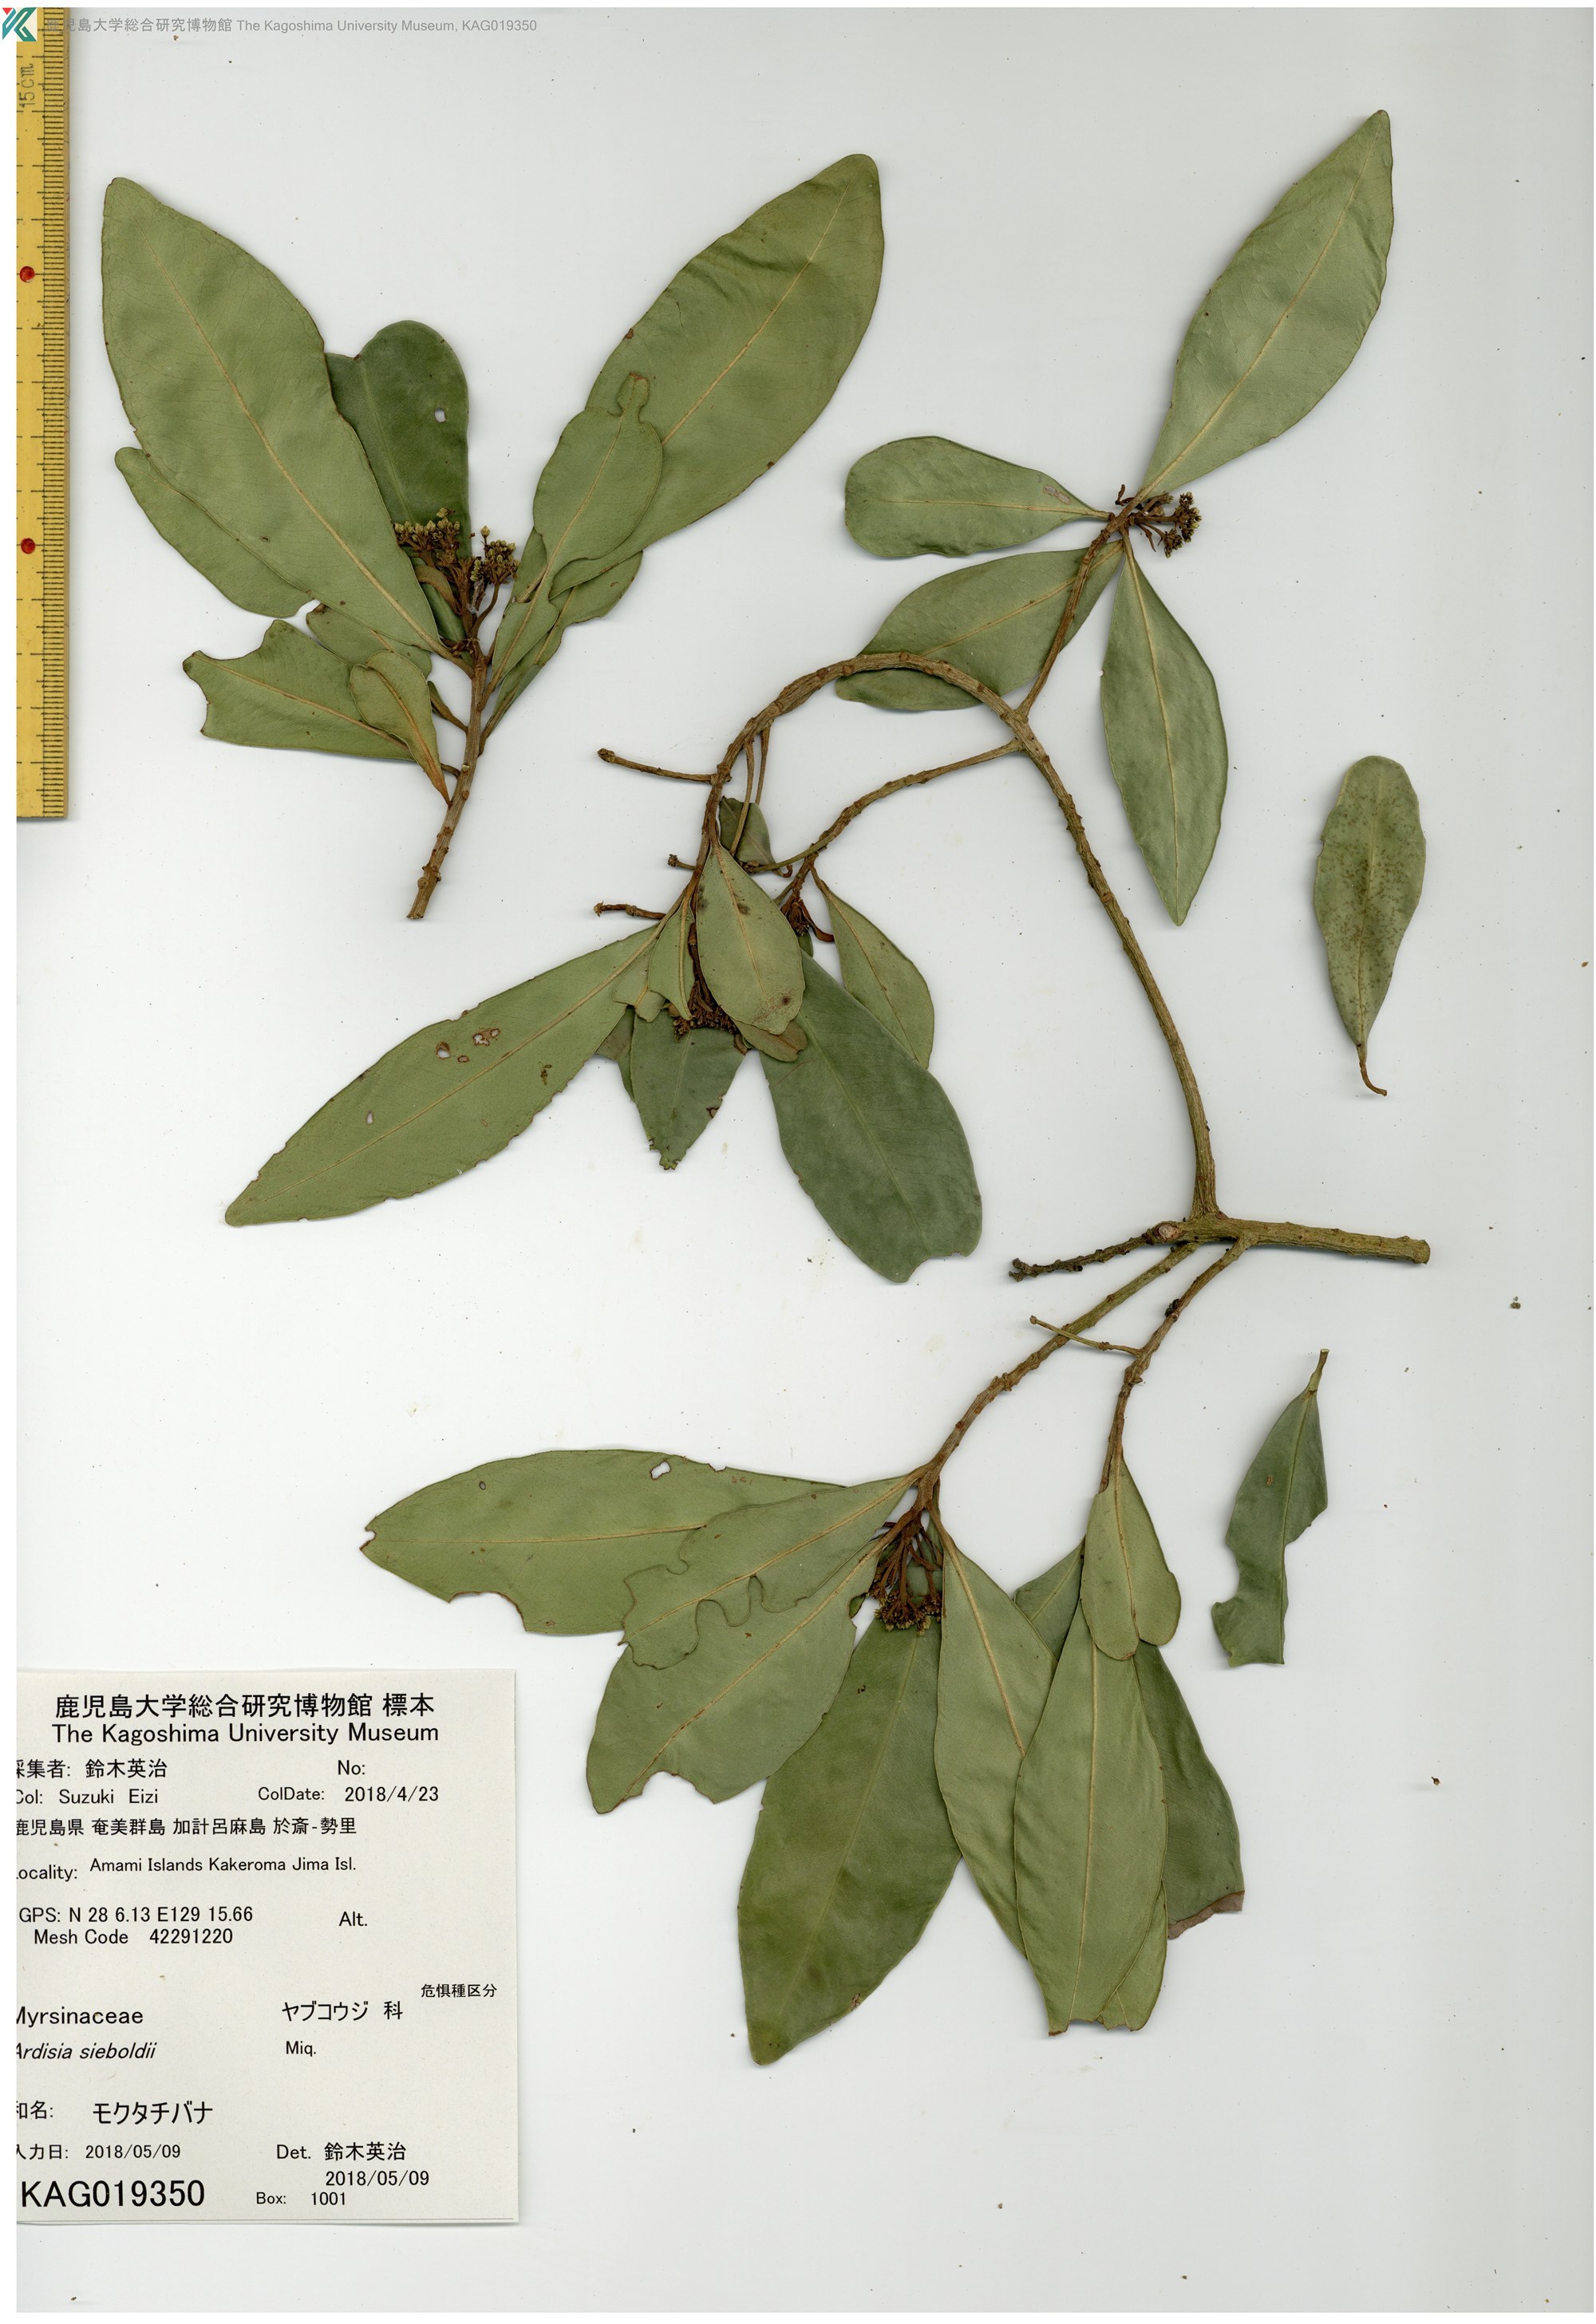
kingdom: Plantae
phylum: Tracheophyta
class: Magnoliopsida
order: Ericales
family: Primulaceae
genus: Ardisia
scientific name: Ardisia sieboldii
